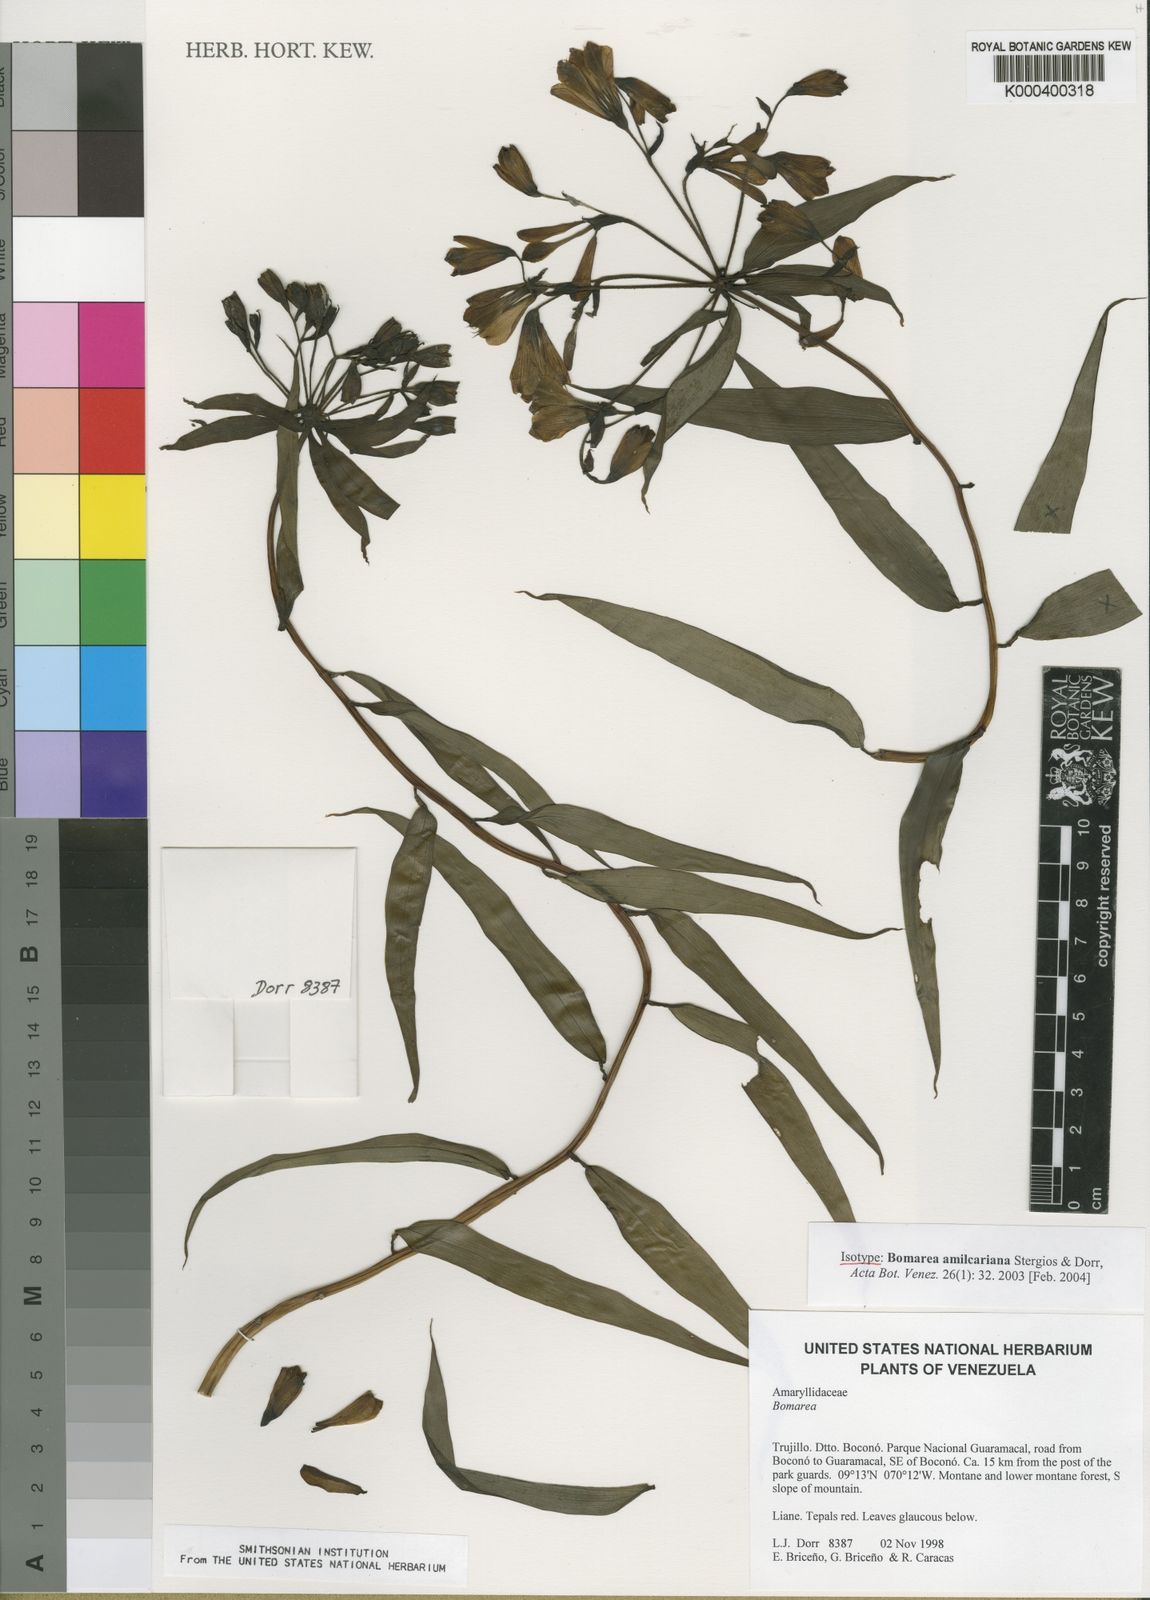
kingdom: Plantae
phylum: Tracheophyta
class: Liliopsida
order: Liliales
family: Alstroemeriaceae
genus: Bomarea
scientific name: Bomarea amilcariana
